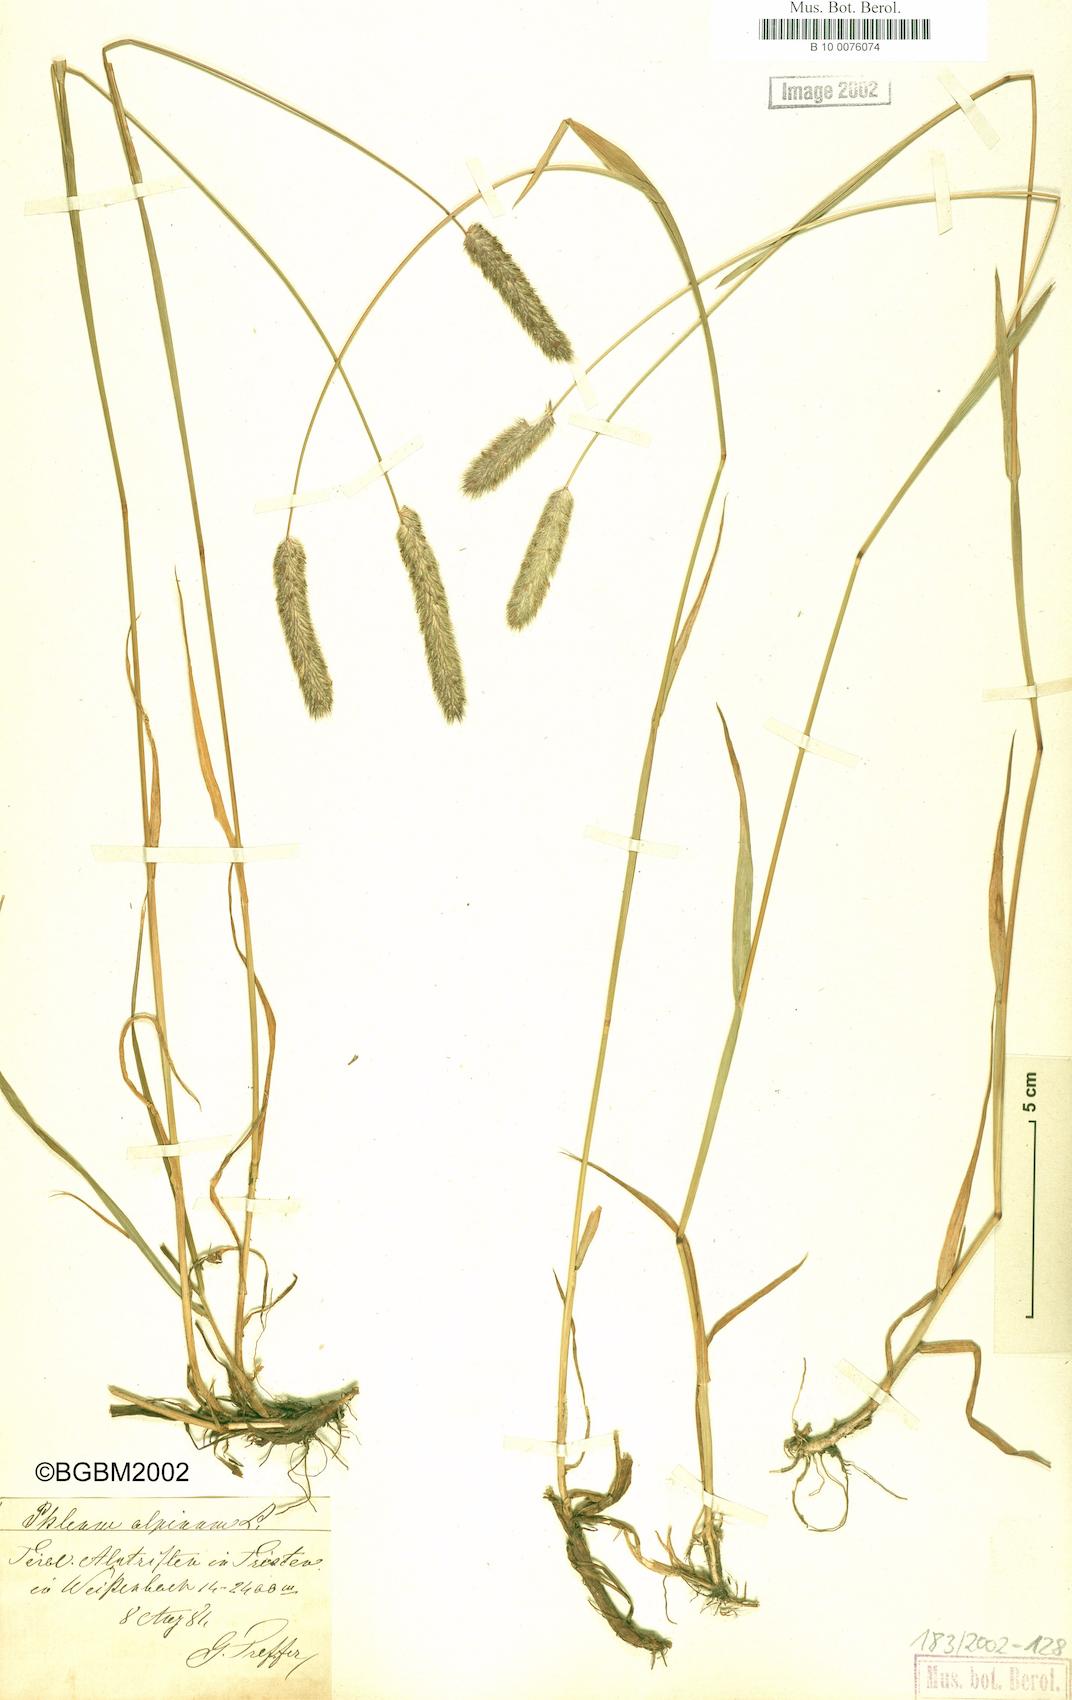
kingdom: Plantae
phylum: Tracheophyta
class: Liliopsida
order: Poales
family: Poaceae
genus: Phleum
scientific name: Phleum alpinum
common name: Alpine cat's-tail
